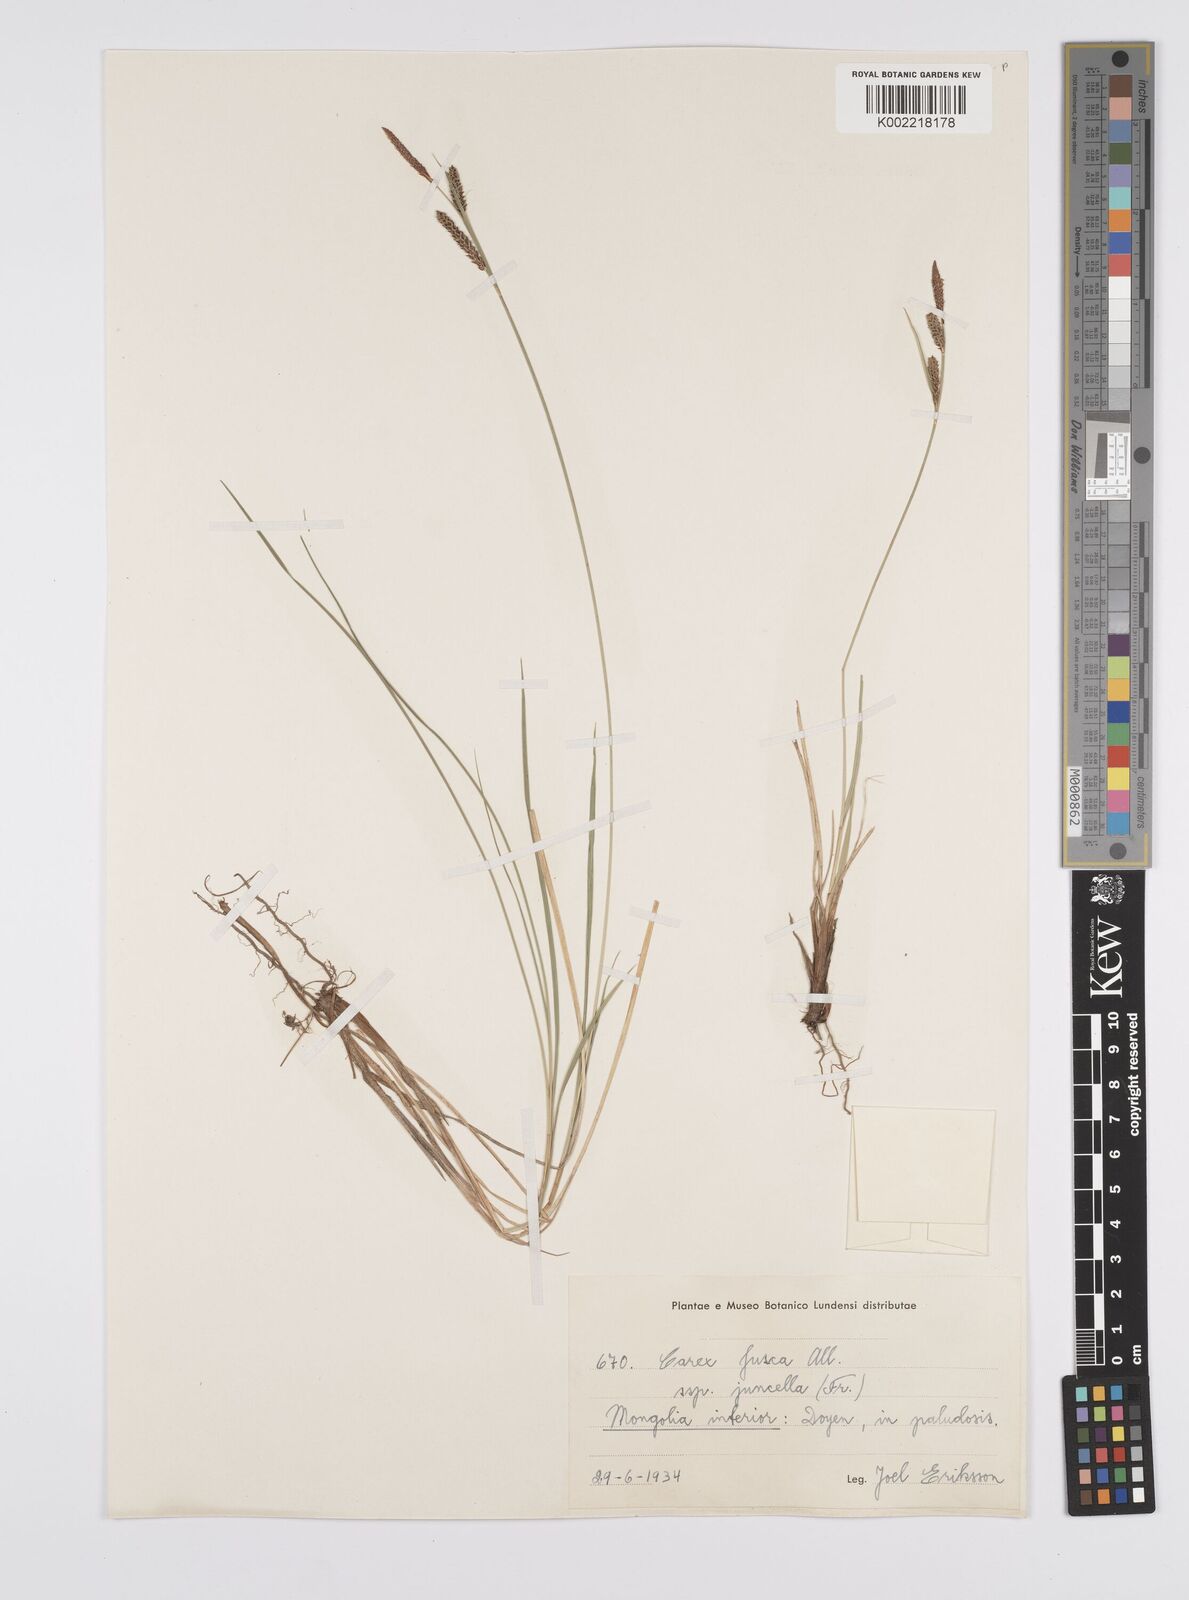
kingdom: Plantae
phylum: Tracheophyta
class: Liliopsida
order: Poales
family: Cyperaceae
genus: Carex
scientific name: Carex nigra
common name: Common sedge
